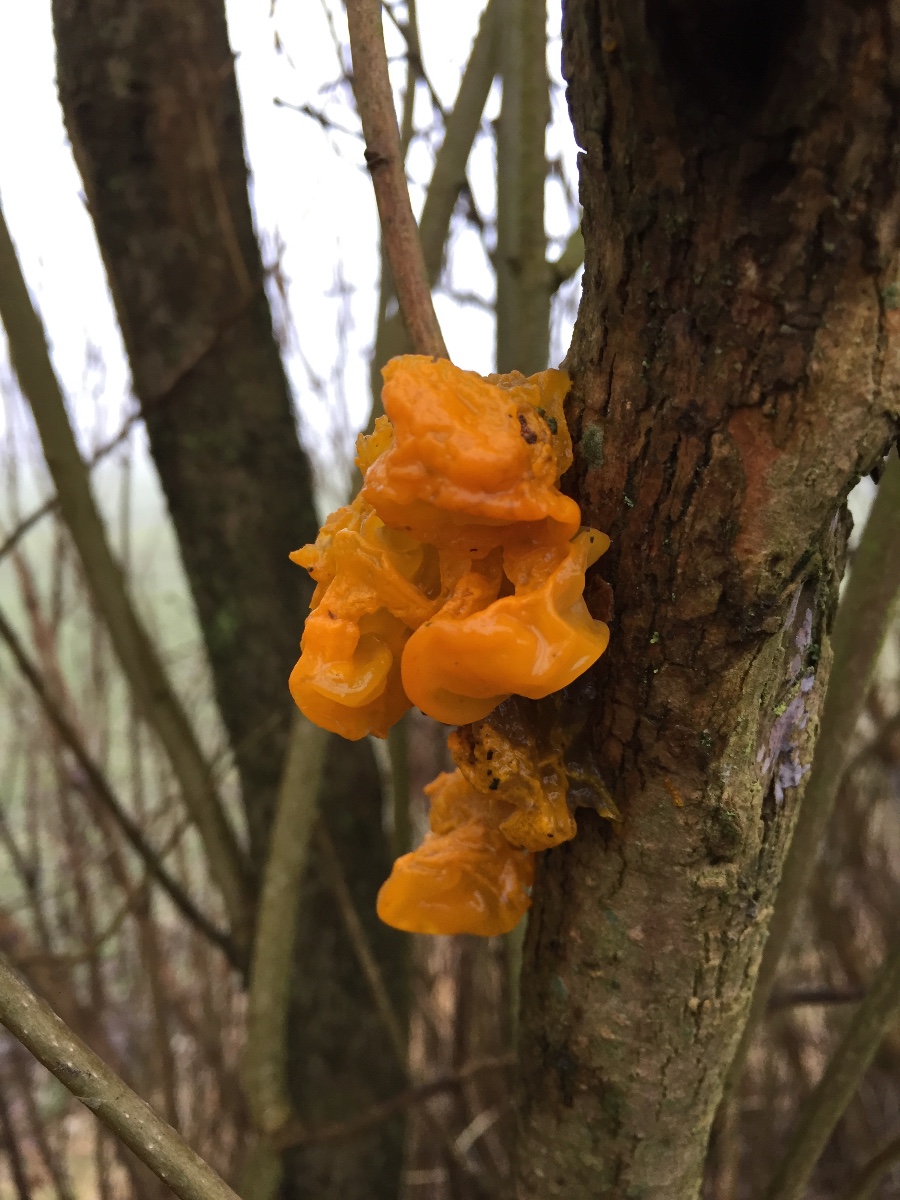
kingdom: Fungi
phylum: Basidiomycota
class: Tremellomycetes
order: Tremellales
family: Tremellaceae
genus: Tremella
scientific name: Tremella mesenterica
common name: gul bævresvamp
